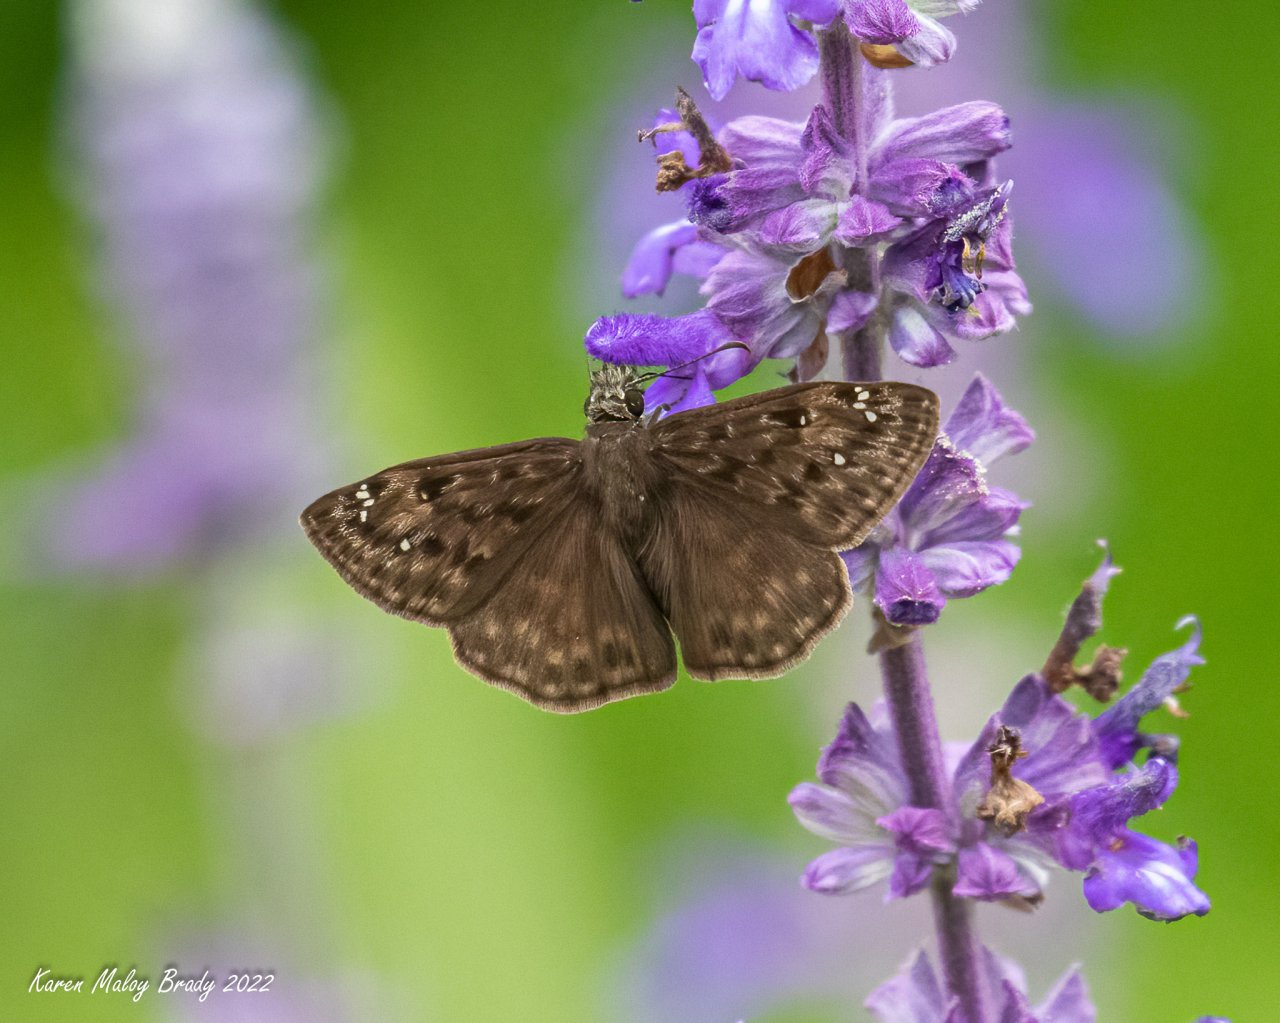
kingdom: Animalia
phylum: Arthropoda
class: Insecta
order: Lepidoptera
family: Hesperiidae
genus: Gesta
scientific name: Gesta
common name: Horace's Duskywing
